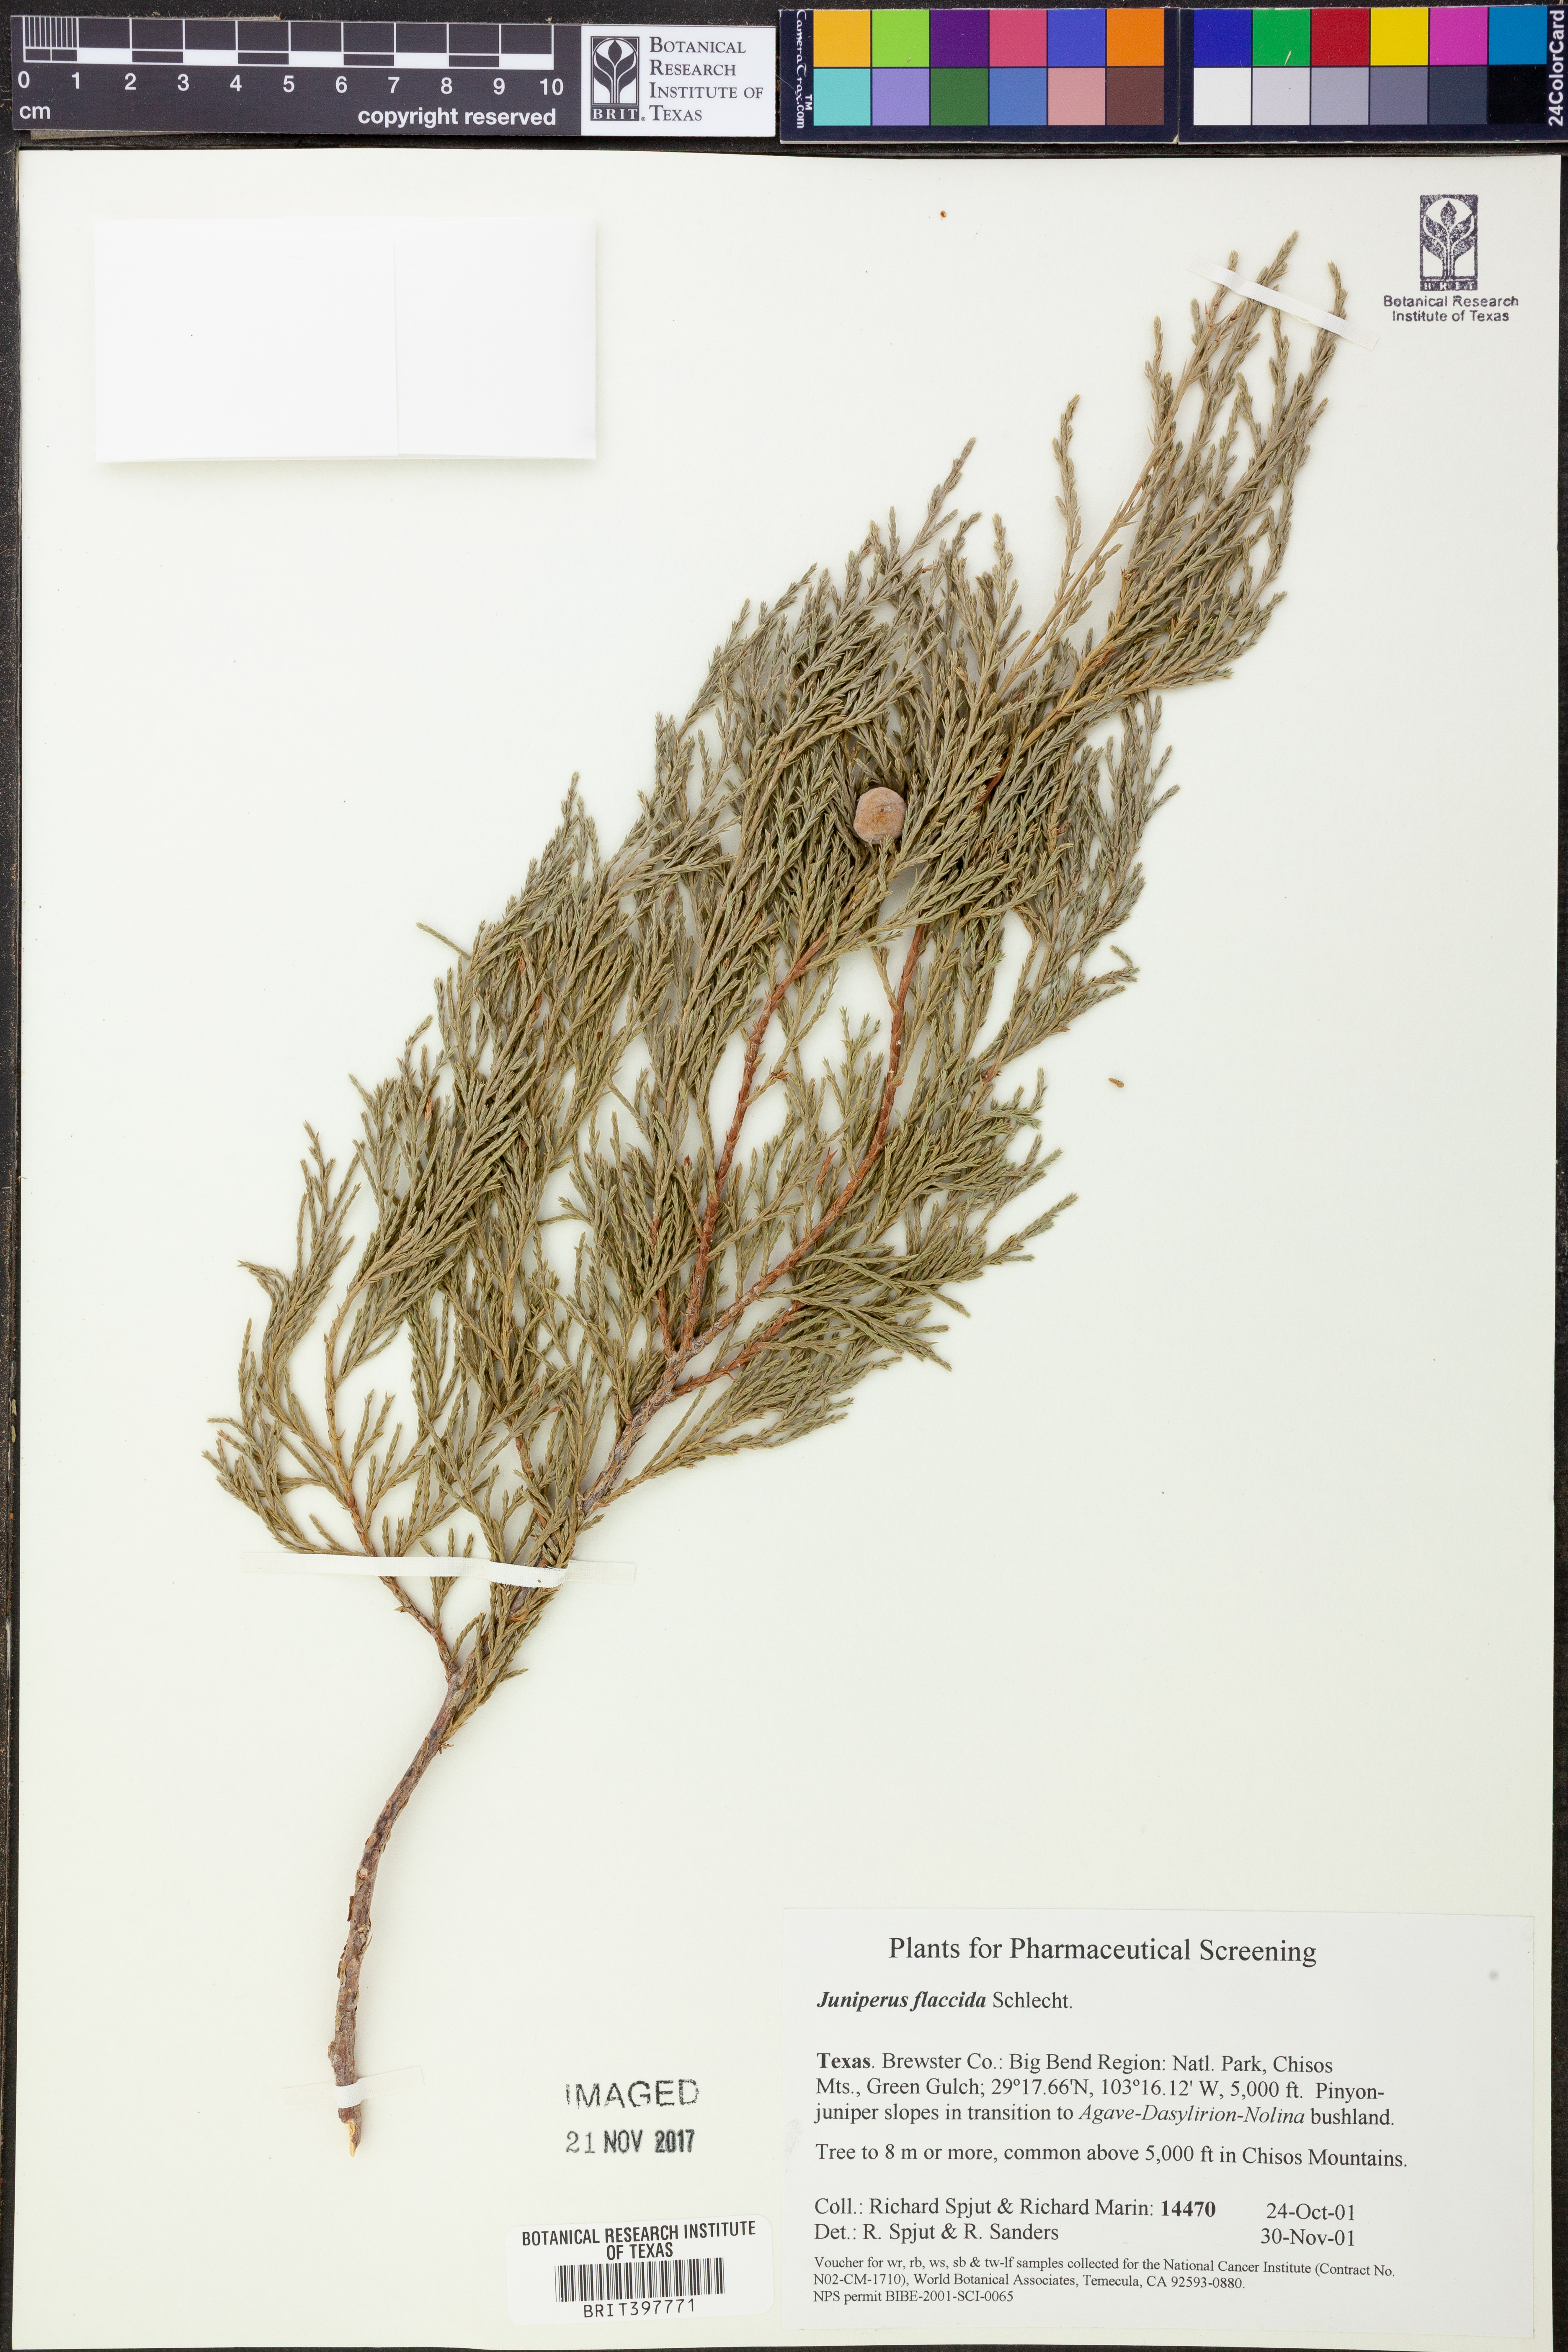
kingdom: Plantae
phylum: Tracheophyta
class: Pinopsida
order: Pinales
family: Cupressaceae
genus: Juniperus
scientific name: Juniperus flaccida
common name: Drooping juniper
